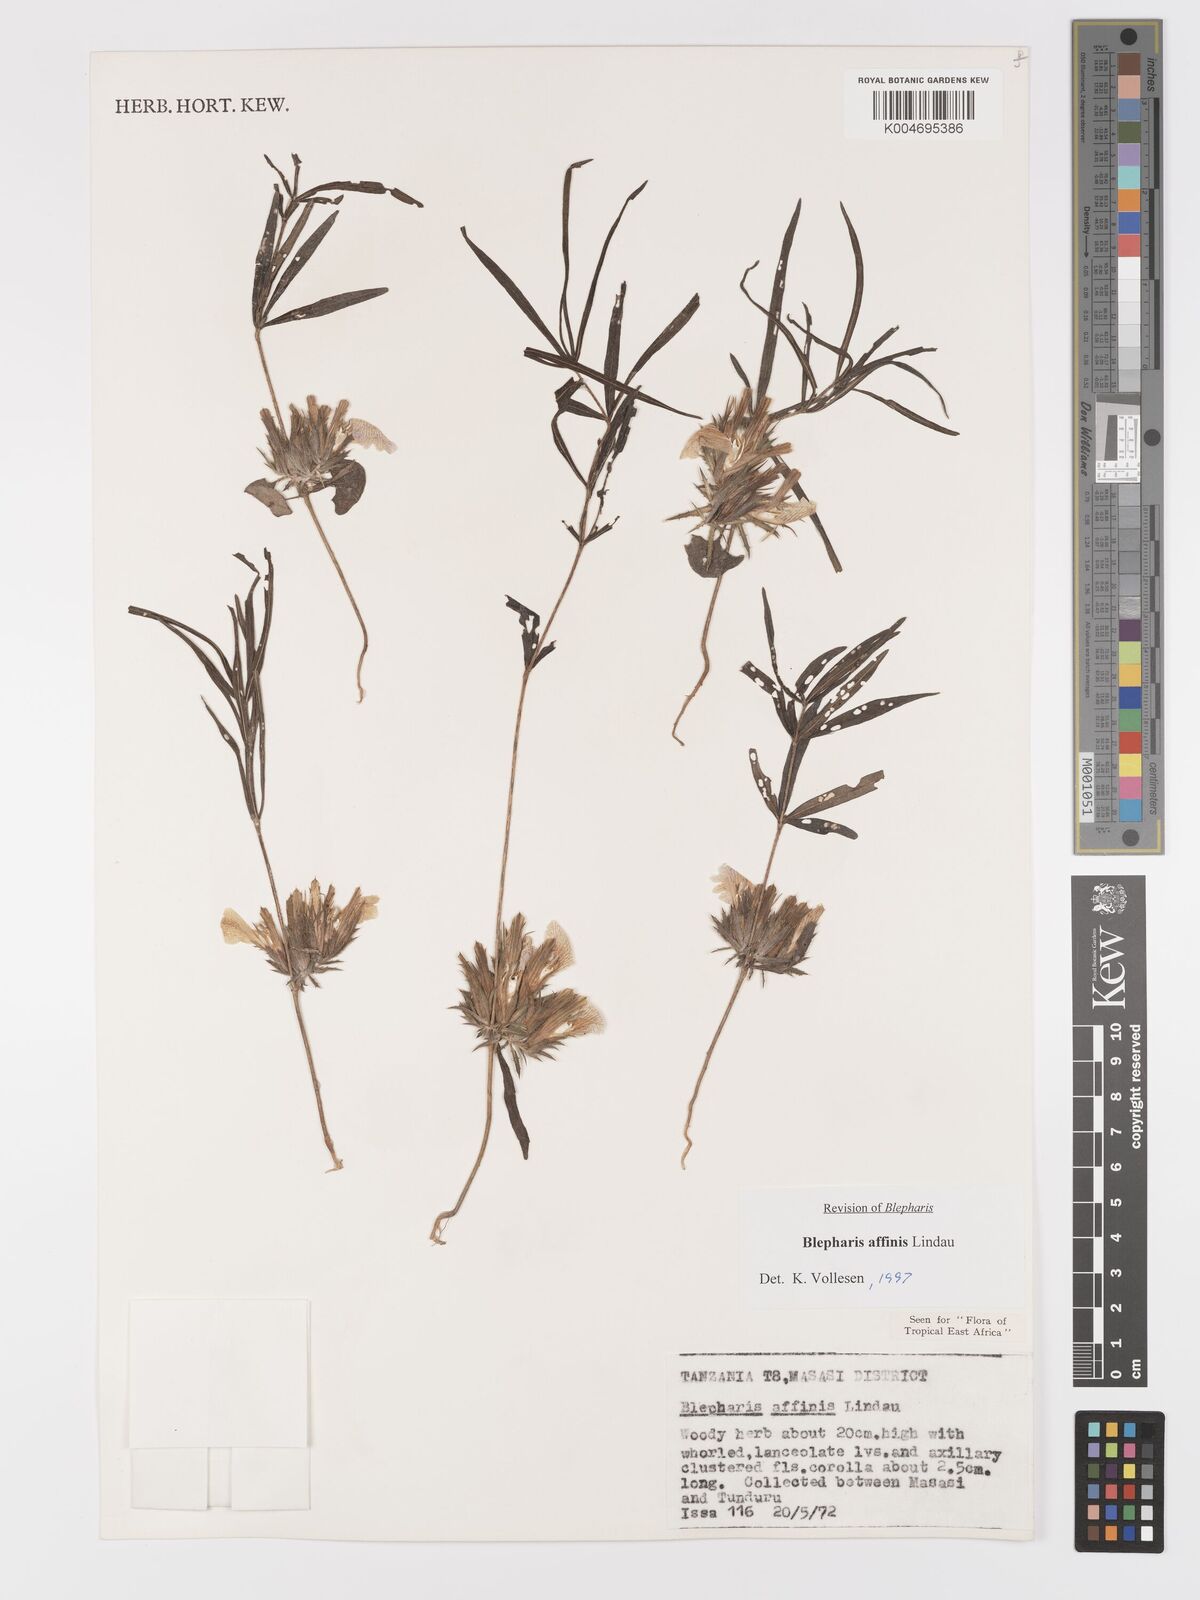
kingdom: Plantae
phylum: Tracheophyta
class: Magnoliopsida
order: Lamiales
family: Acanthaceae
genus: Blepharis
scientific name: Blepharis affinis
